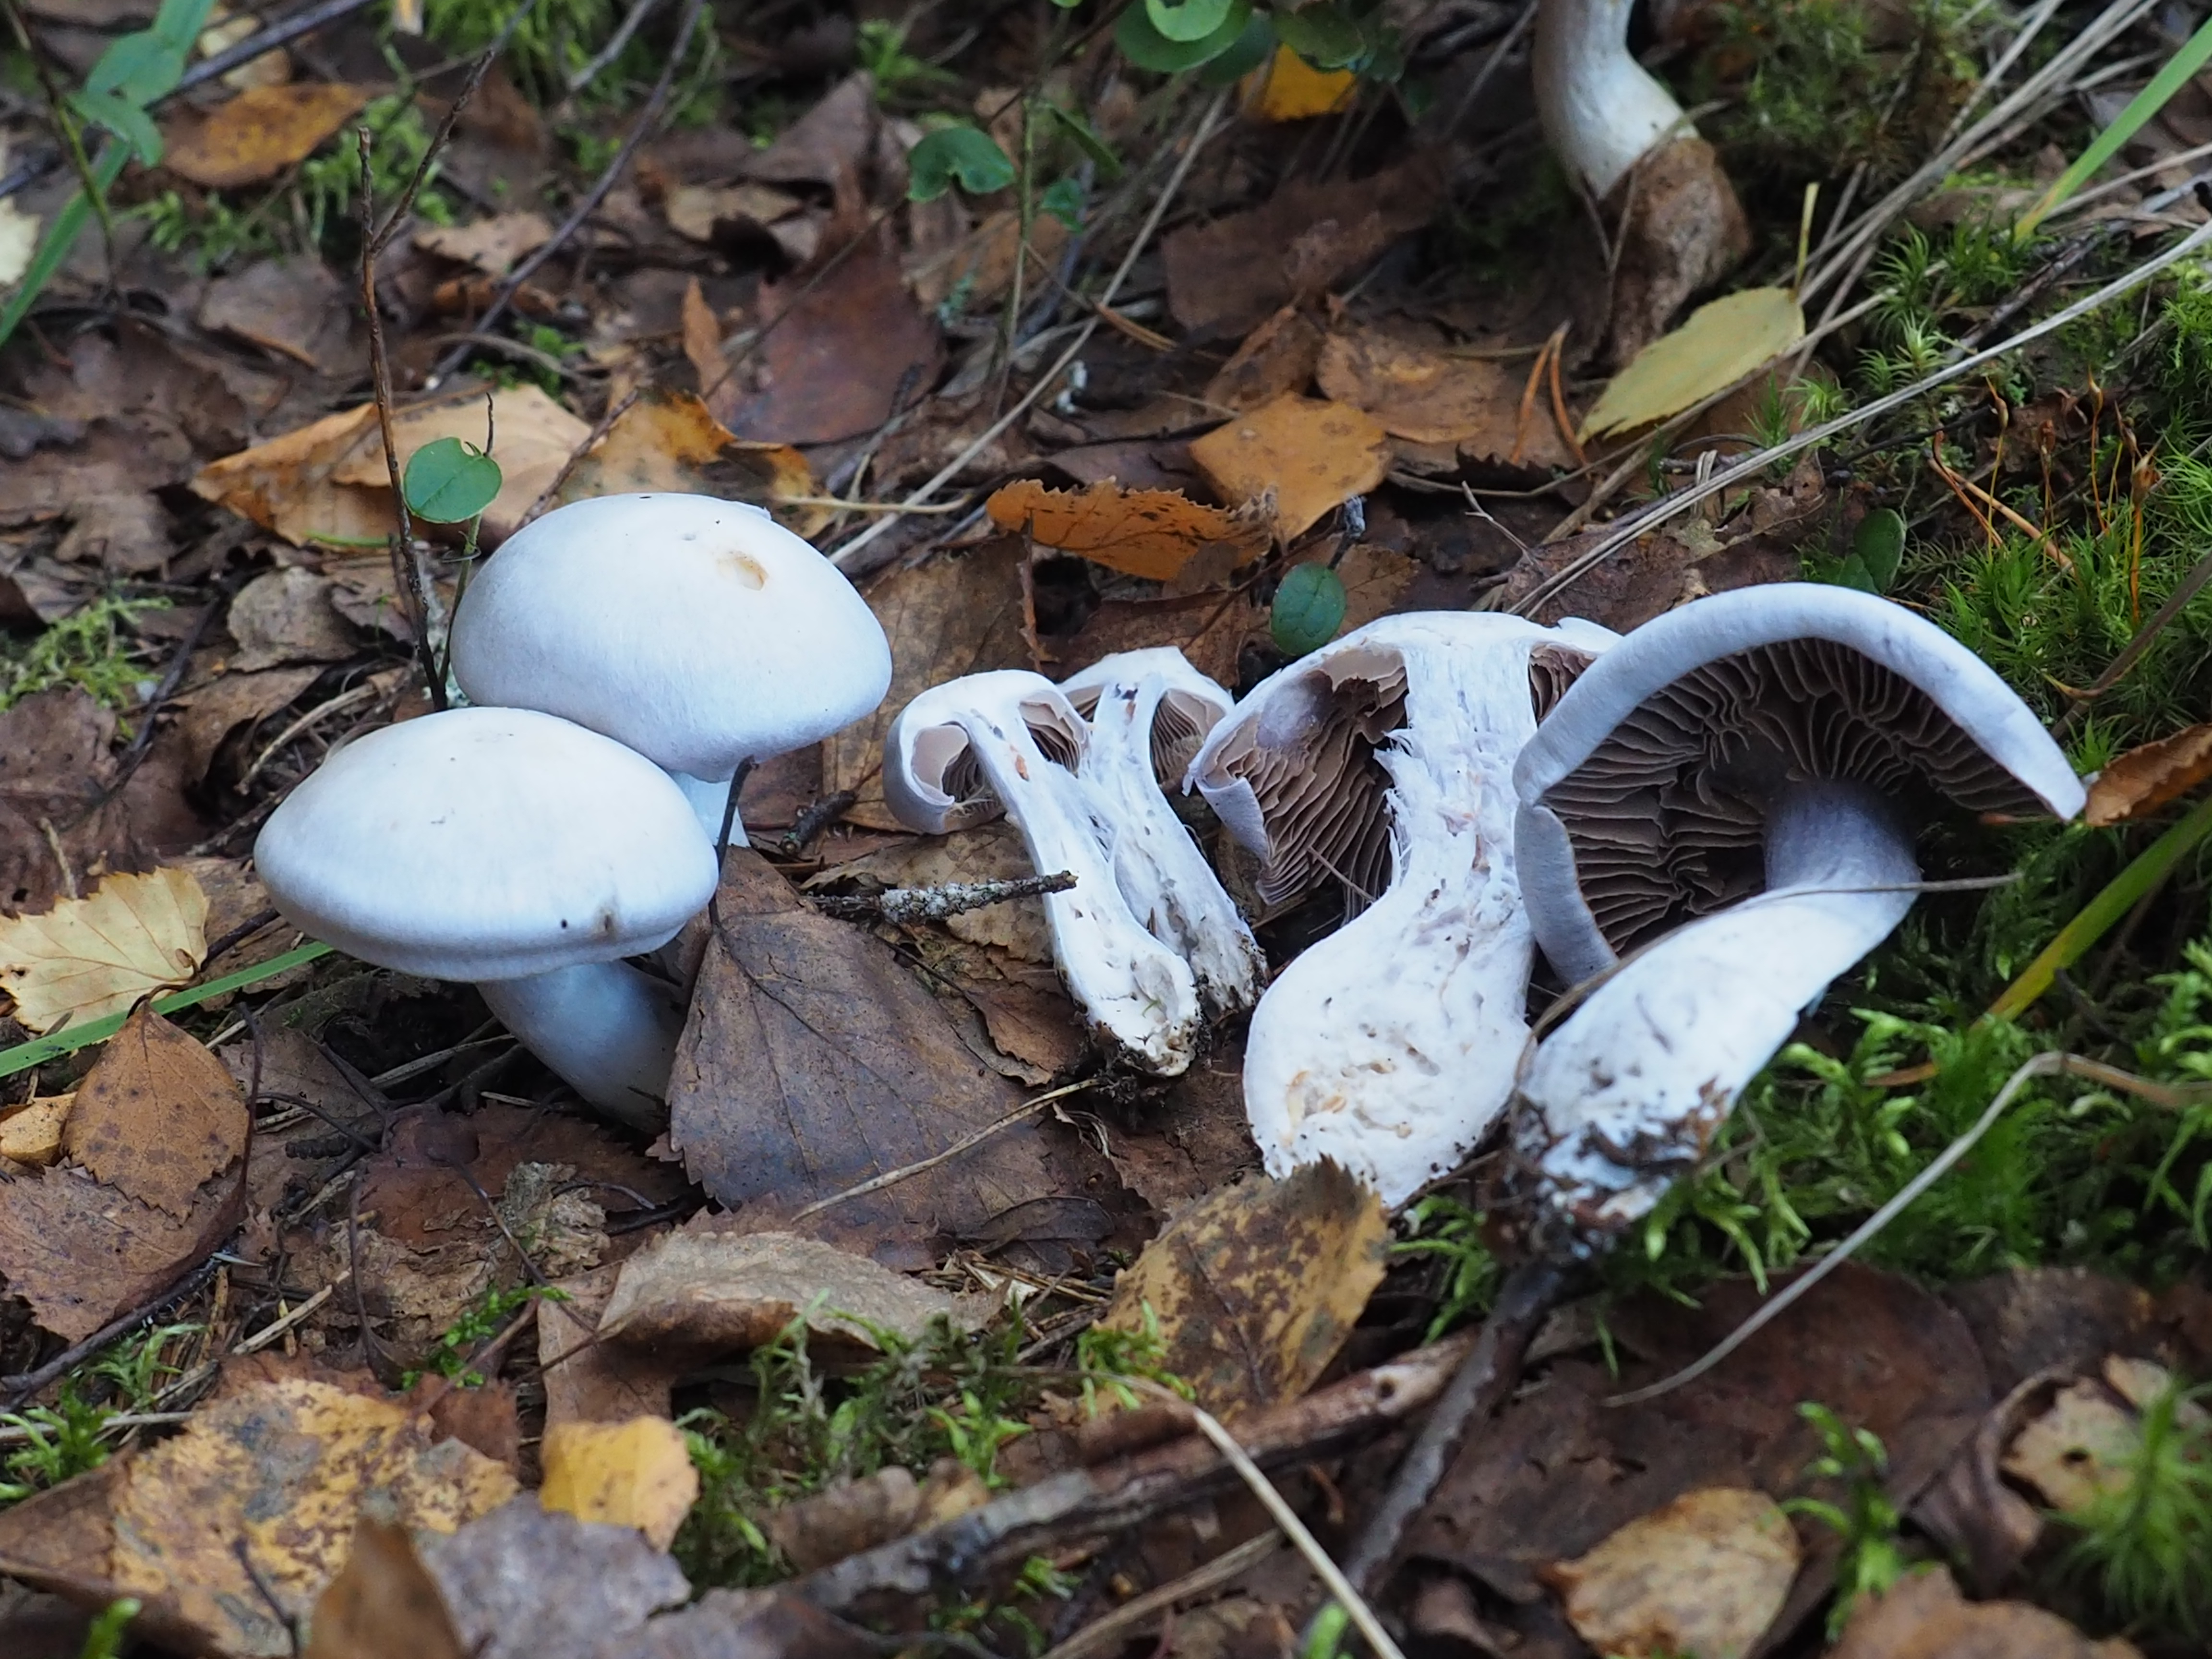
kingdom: Fungi
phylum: Basidiomycota
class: Agaricomycetes
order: Agaricales
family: Cortinariaceae
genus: Cortinarius
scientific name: Cortinarius alboviolaceus
